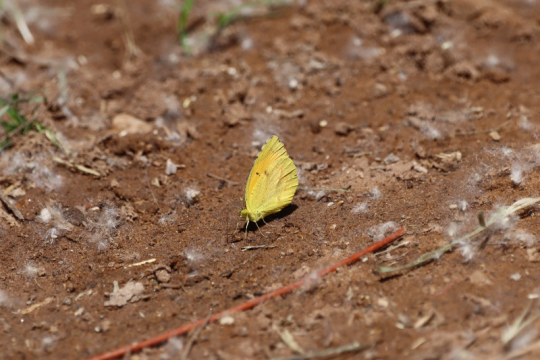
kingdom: Animalia
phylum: Arthropoda
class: Insecta
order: Lepidoptera
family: Pieridae
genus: Abaeis
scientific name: Abaeis nicippe
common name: Sleepy Orange
